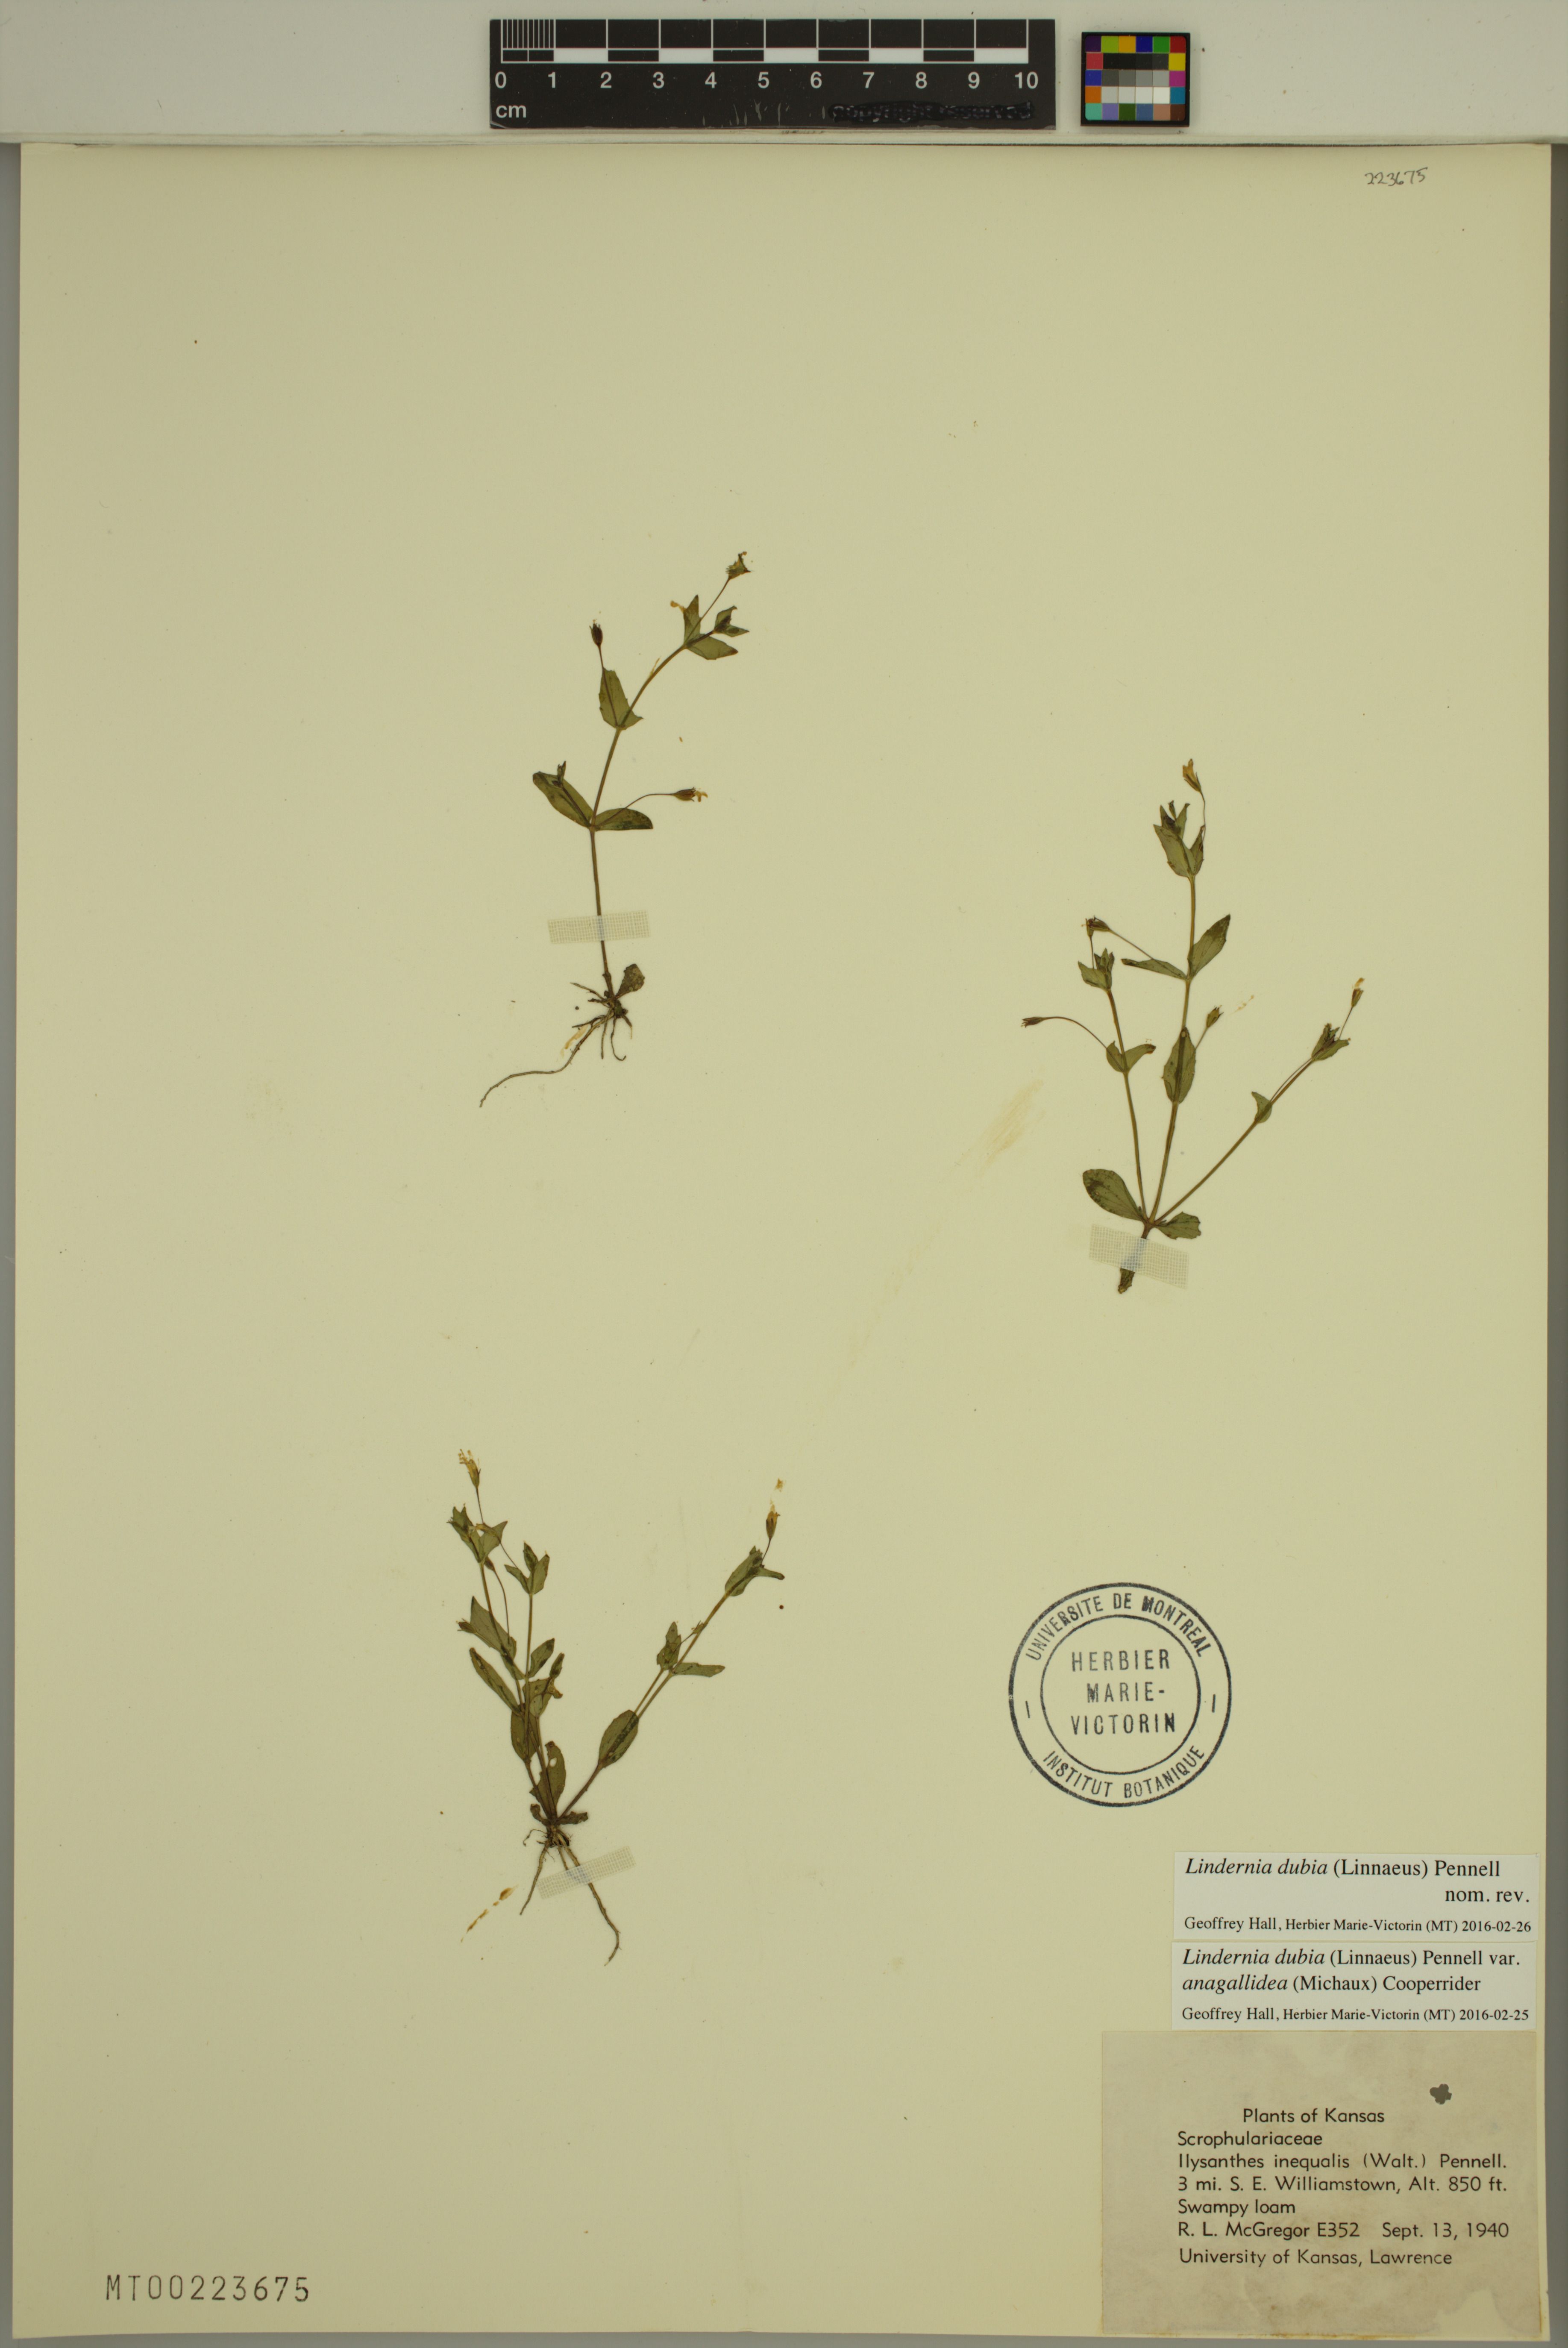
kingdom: Plantae
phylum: Tracheophyta
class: Magnoliopsida
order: Lamiales
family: Linderniaceae
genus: Lindernia
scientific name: Lindernia dubia
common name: Annual false pimpernel
